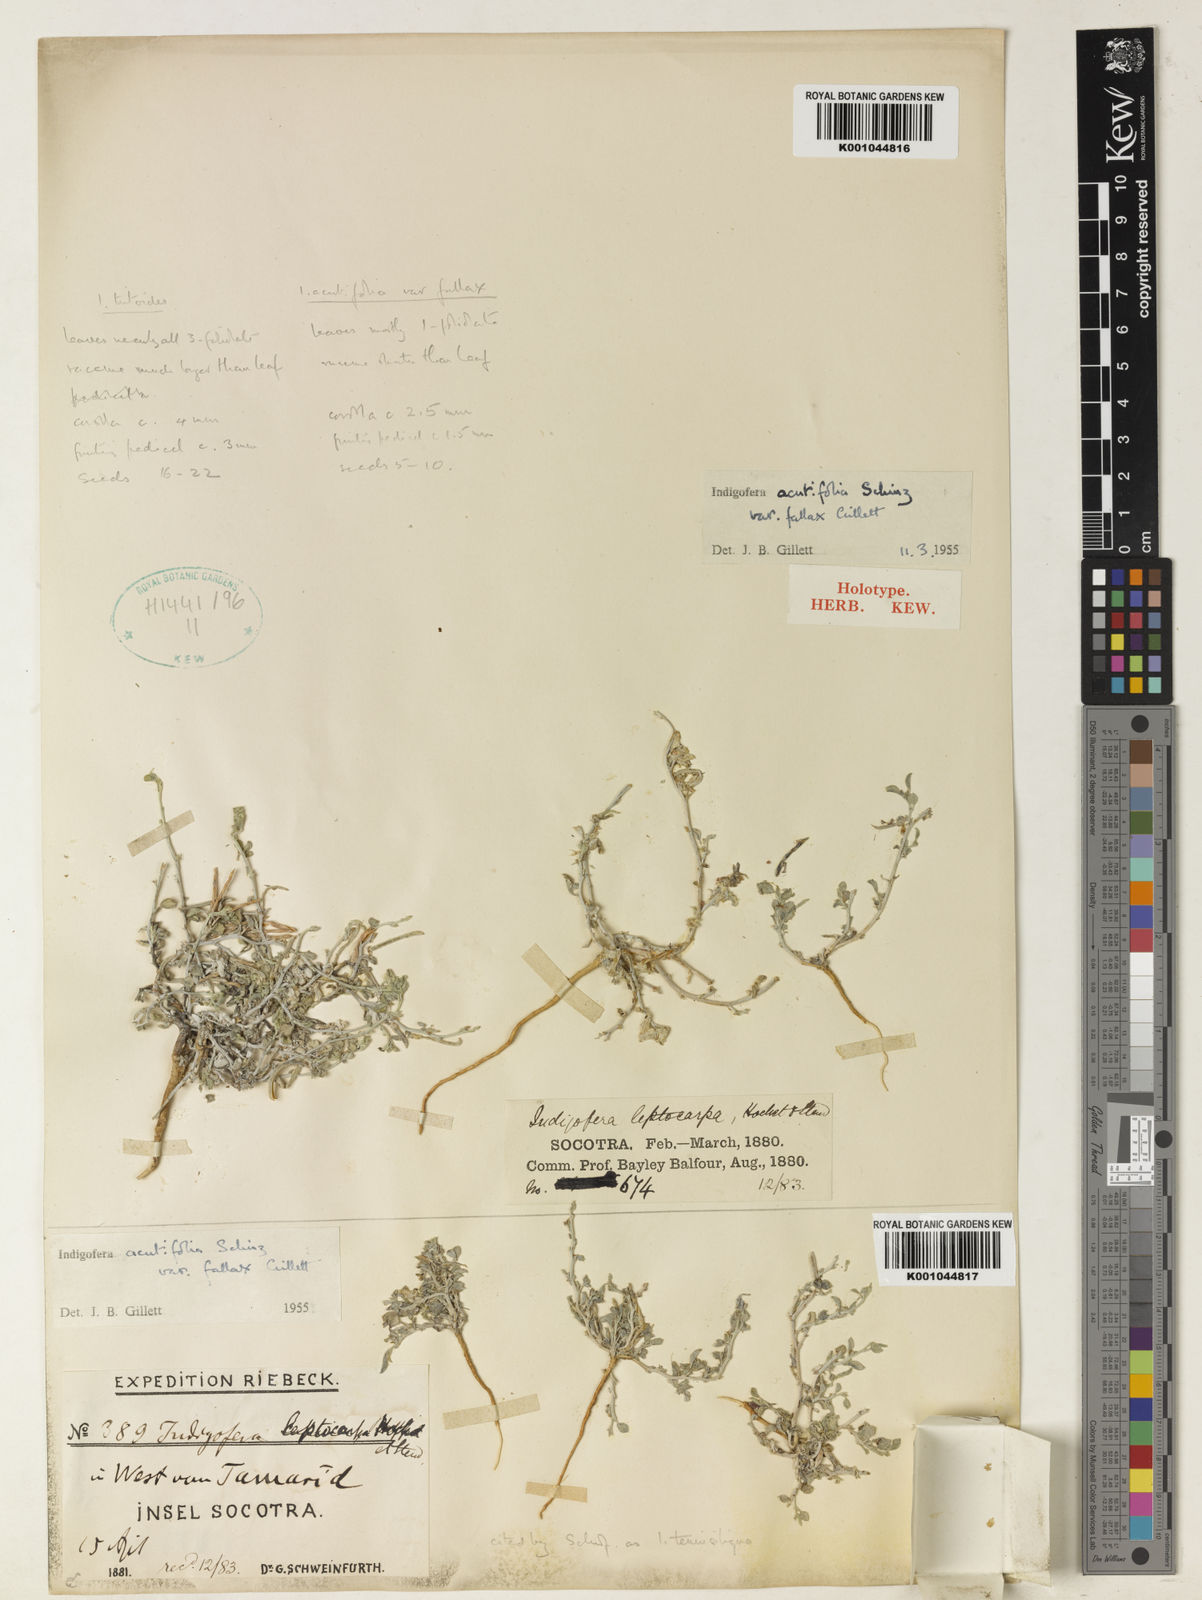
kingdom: Plantae
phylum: Tracheophyta
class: Magnoliopsida
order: Fabales
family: Fabaceae
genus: Indigofera
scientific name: Indigofera miniata
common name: Coast indigo
